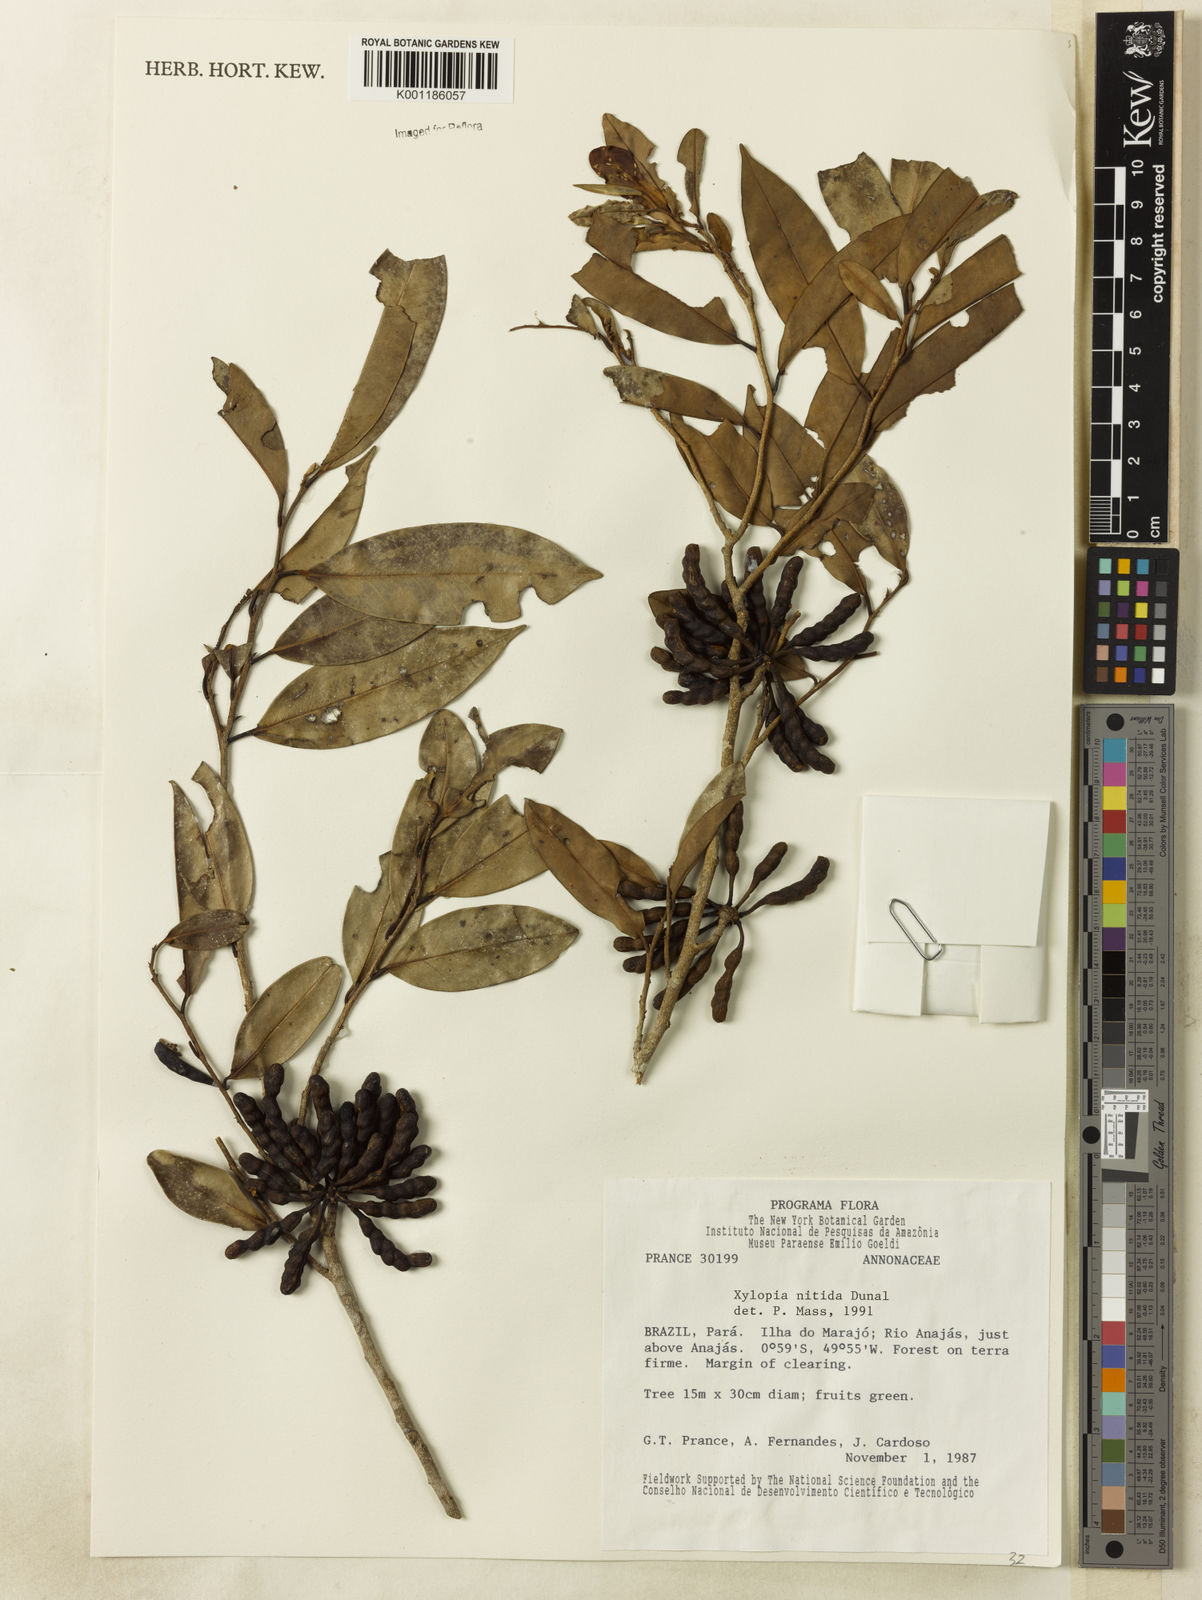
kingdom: Plantae
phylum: Tracheophyta
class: Magnoliopsida
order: Magnoliales
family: Annonaceae
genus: Xylopia
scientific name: Xylopia nitida
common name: White kuyama
